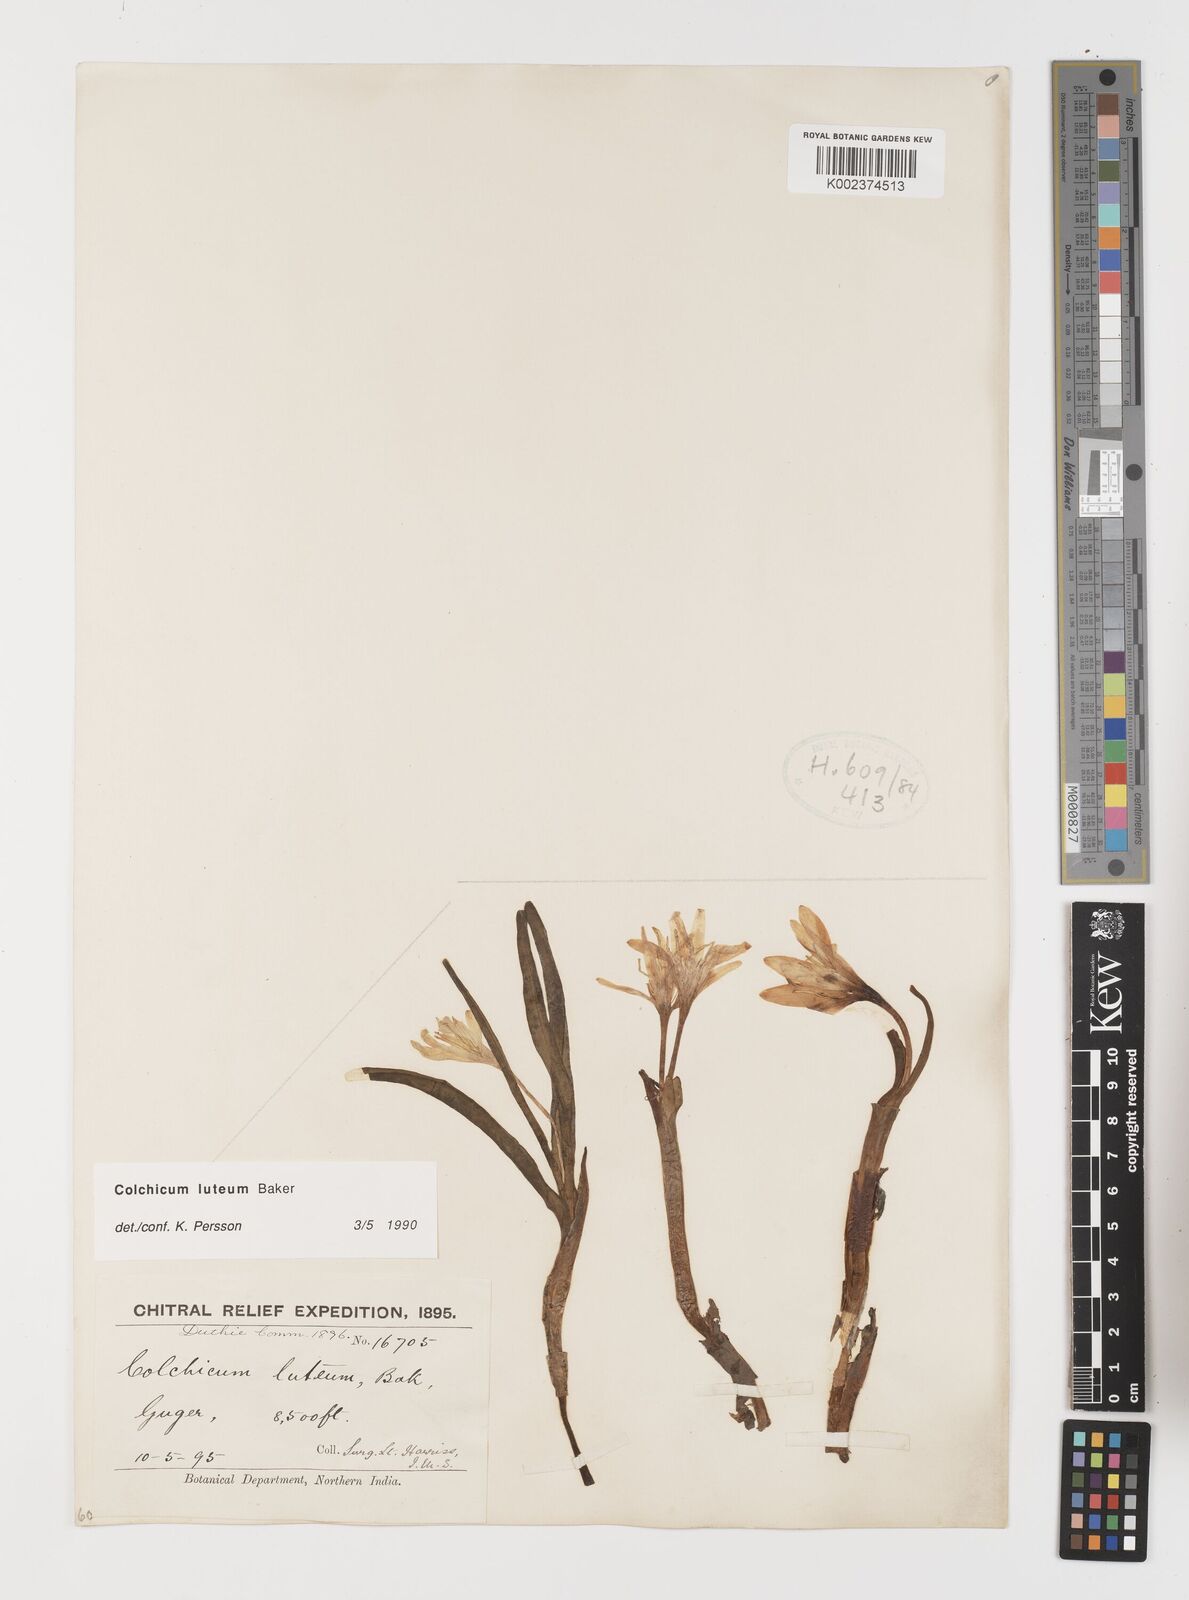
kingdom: Plantae
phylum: Tracheophyta
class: Liliopsida
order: Liliales
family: Colchicaceae
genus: Colchicum
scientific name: Colchicum luteum
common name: Indian colchicum
